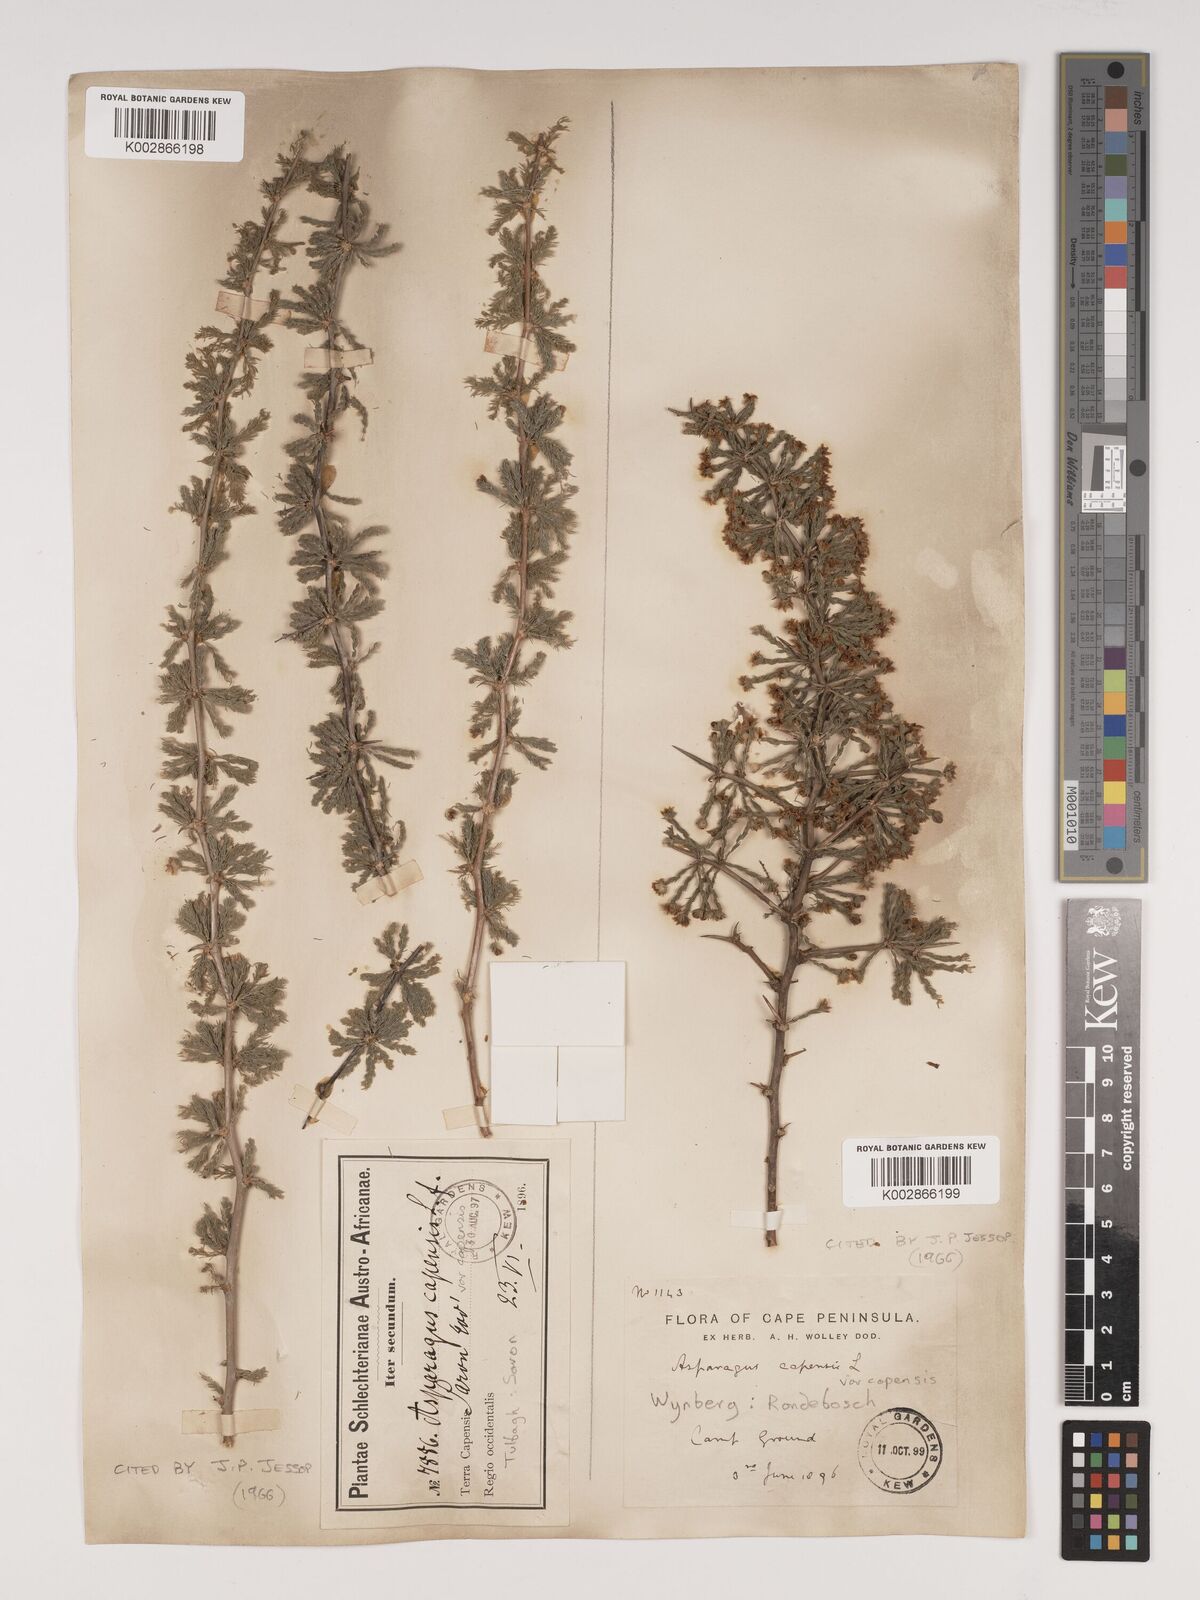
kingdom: Plantae
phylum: Tracheophyta
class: Liliopsida
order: Asparagales
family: Asparagaceae
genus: Asparagus
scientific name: Asparagus capensis
